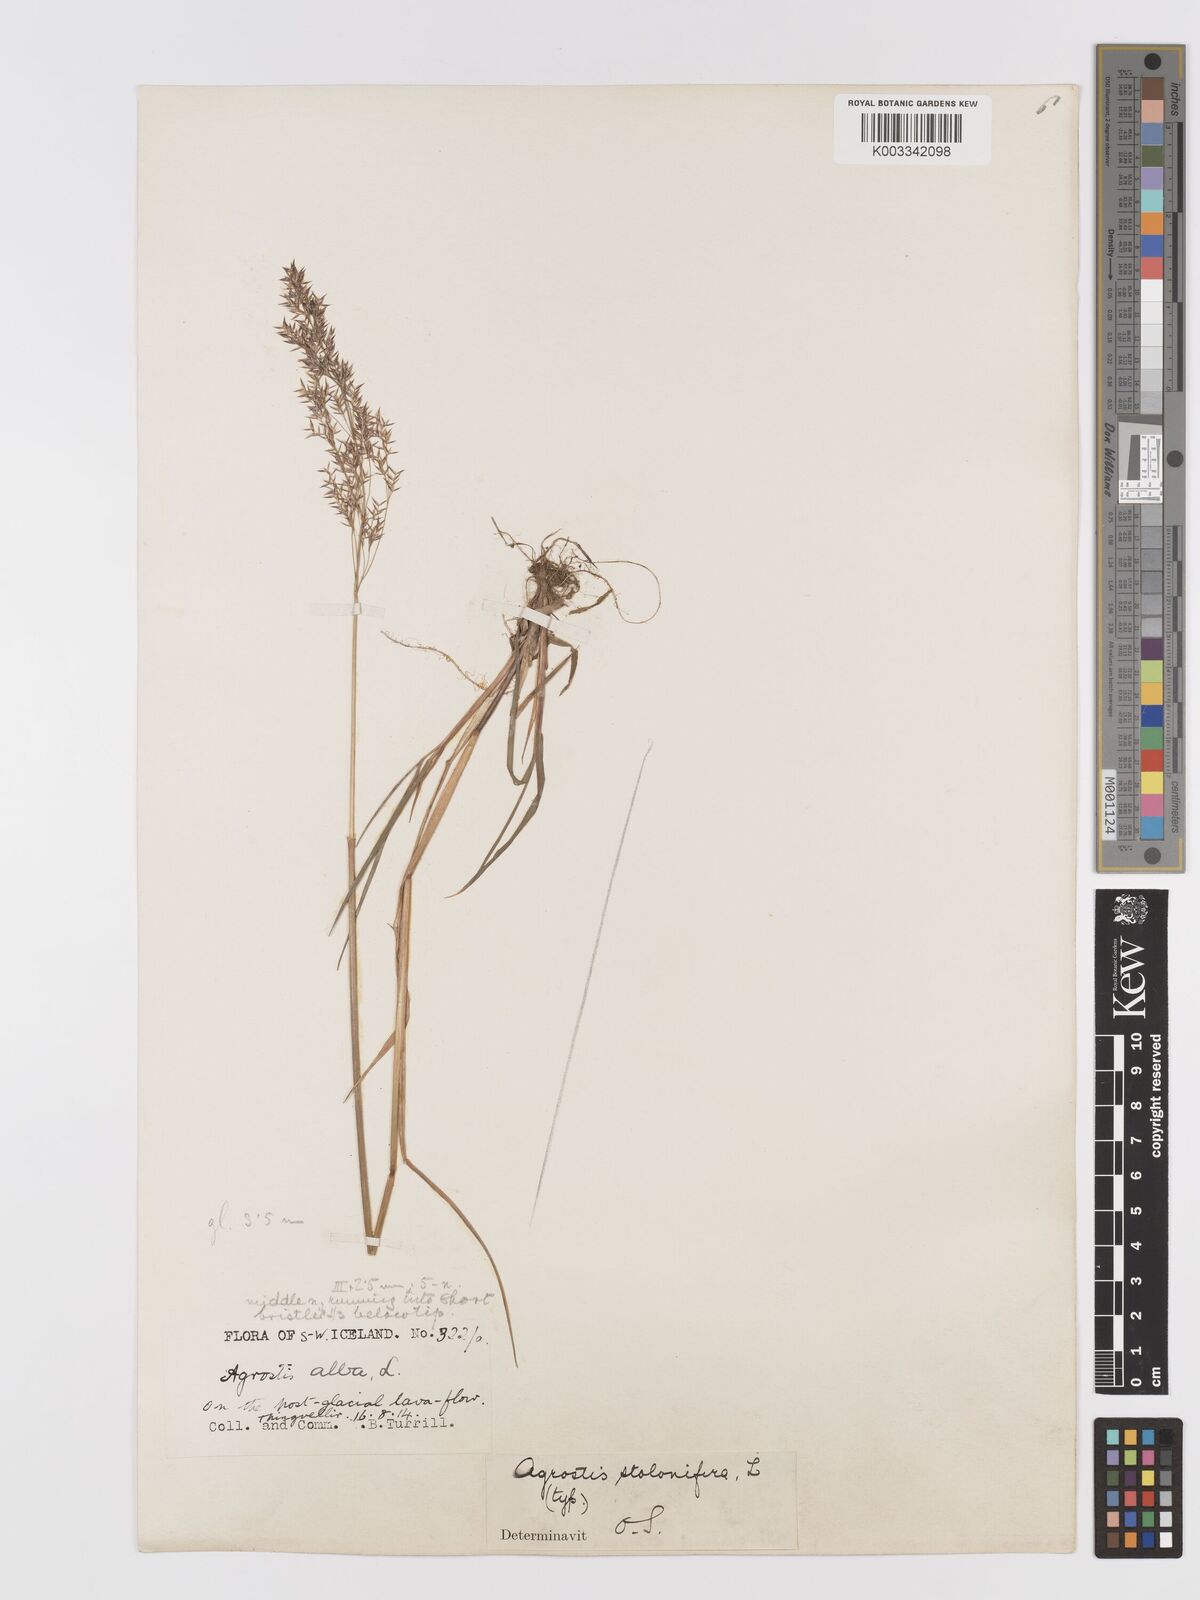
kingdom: Plantae
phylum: Tracheophyta
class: Liliopsida
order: Poales
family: Poaceae
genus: Agrostis
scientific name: Agrostis stolonifera
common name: Creeping bentgrass
